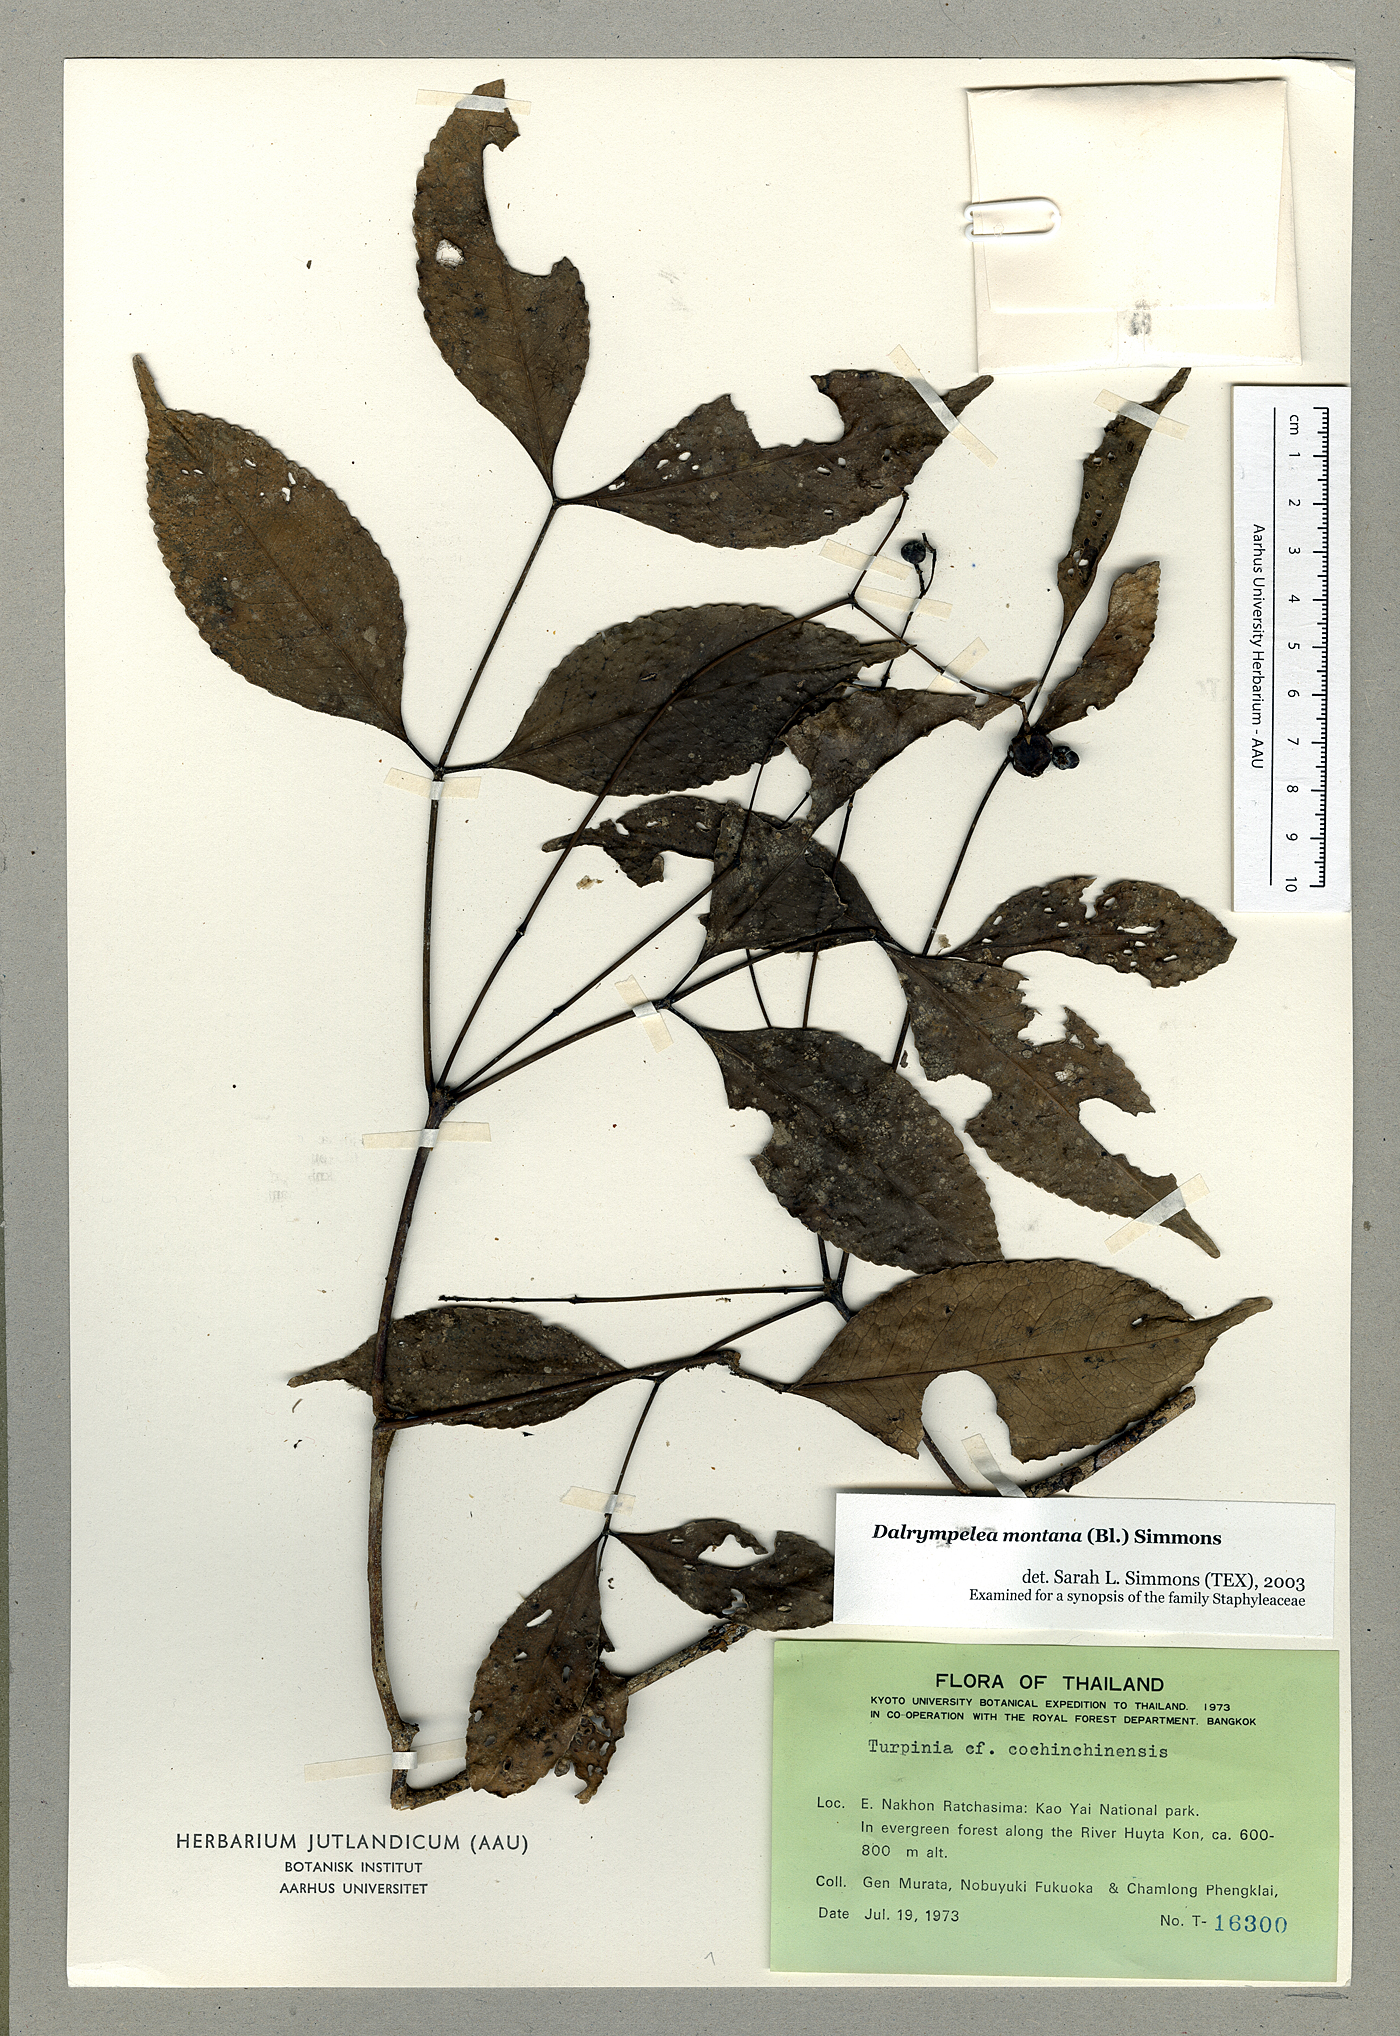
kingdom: Plantae
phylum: Tracheophyta
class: Magnoliopsida
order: Crossosomatales
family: Staphyleaceae
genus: Turpinia
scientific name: Turpinia cochinchinensis
